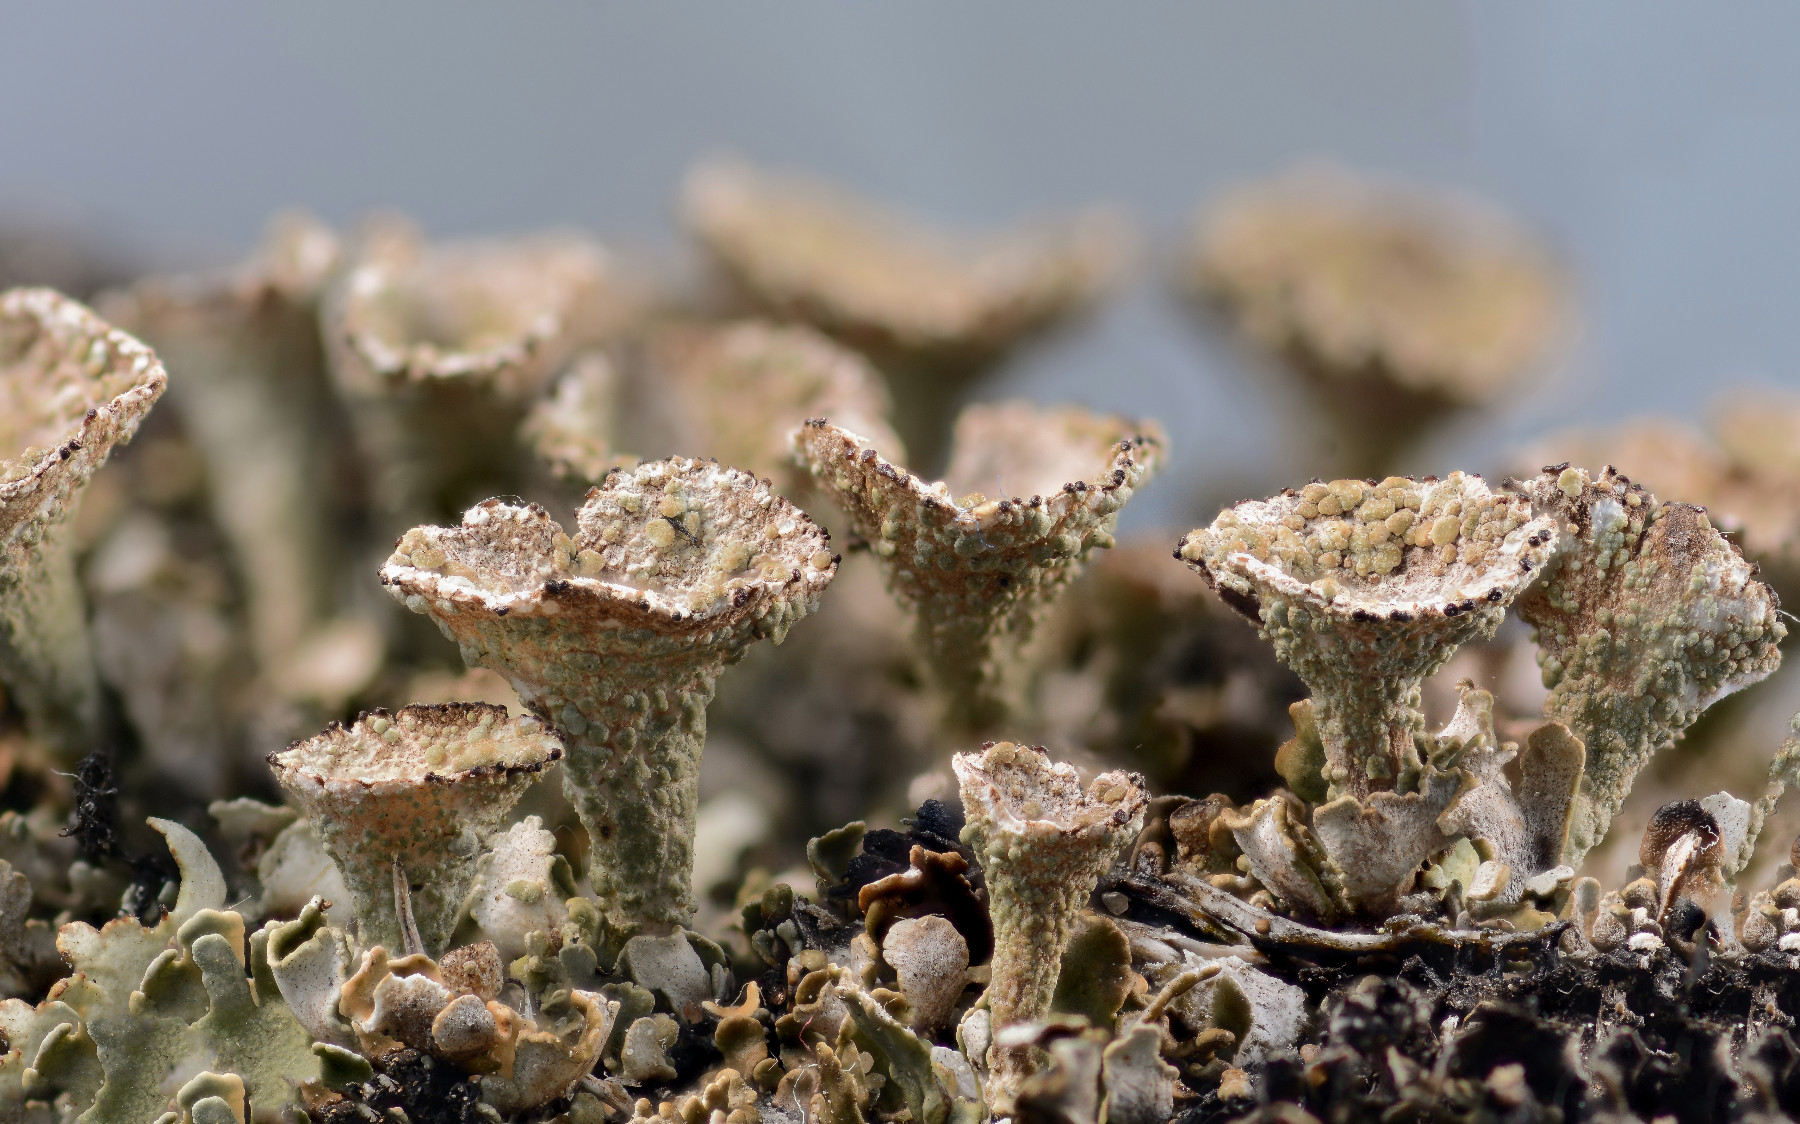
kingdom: Fungi
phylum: Ascomycota
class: Lecanoromycetes
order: Lecanorales
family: Cladoniaceae
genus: Cladonia
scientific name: Cladonia pyxidata
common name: tragt-bægerlav
